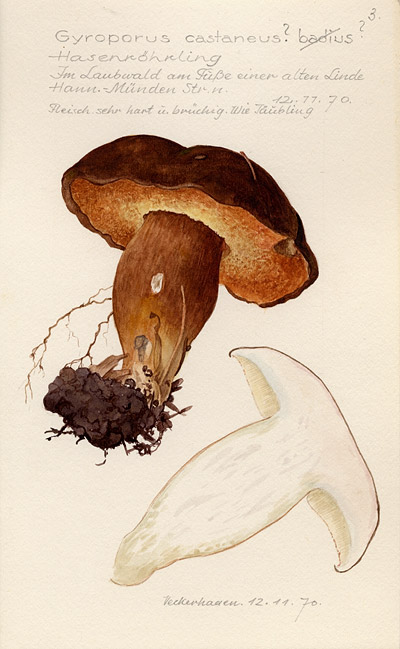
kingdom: Fungi
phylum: Basidiomycota
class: Agaricomycetes
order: Boletales
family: Gyroporaceae
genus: Gyroporus
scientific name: Gyroporus castaneus
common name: Chestnut bolete
